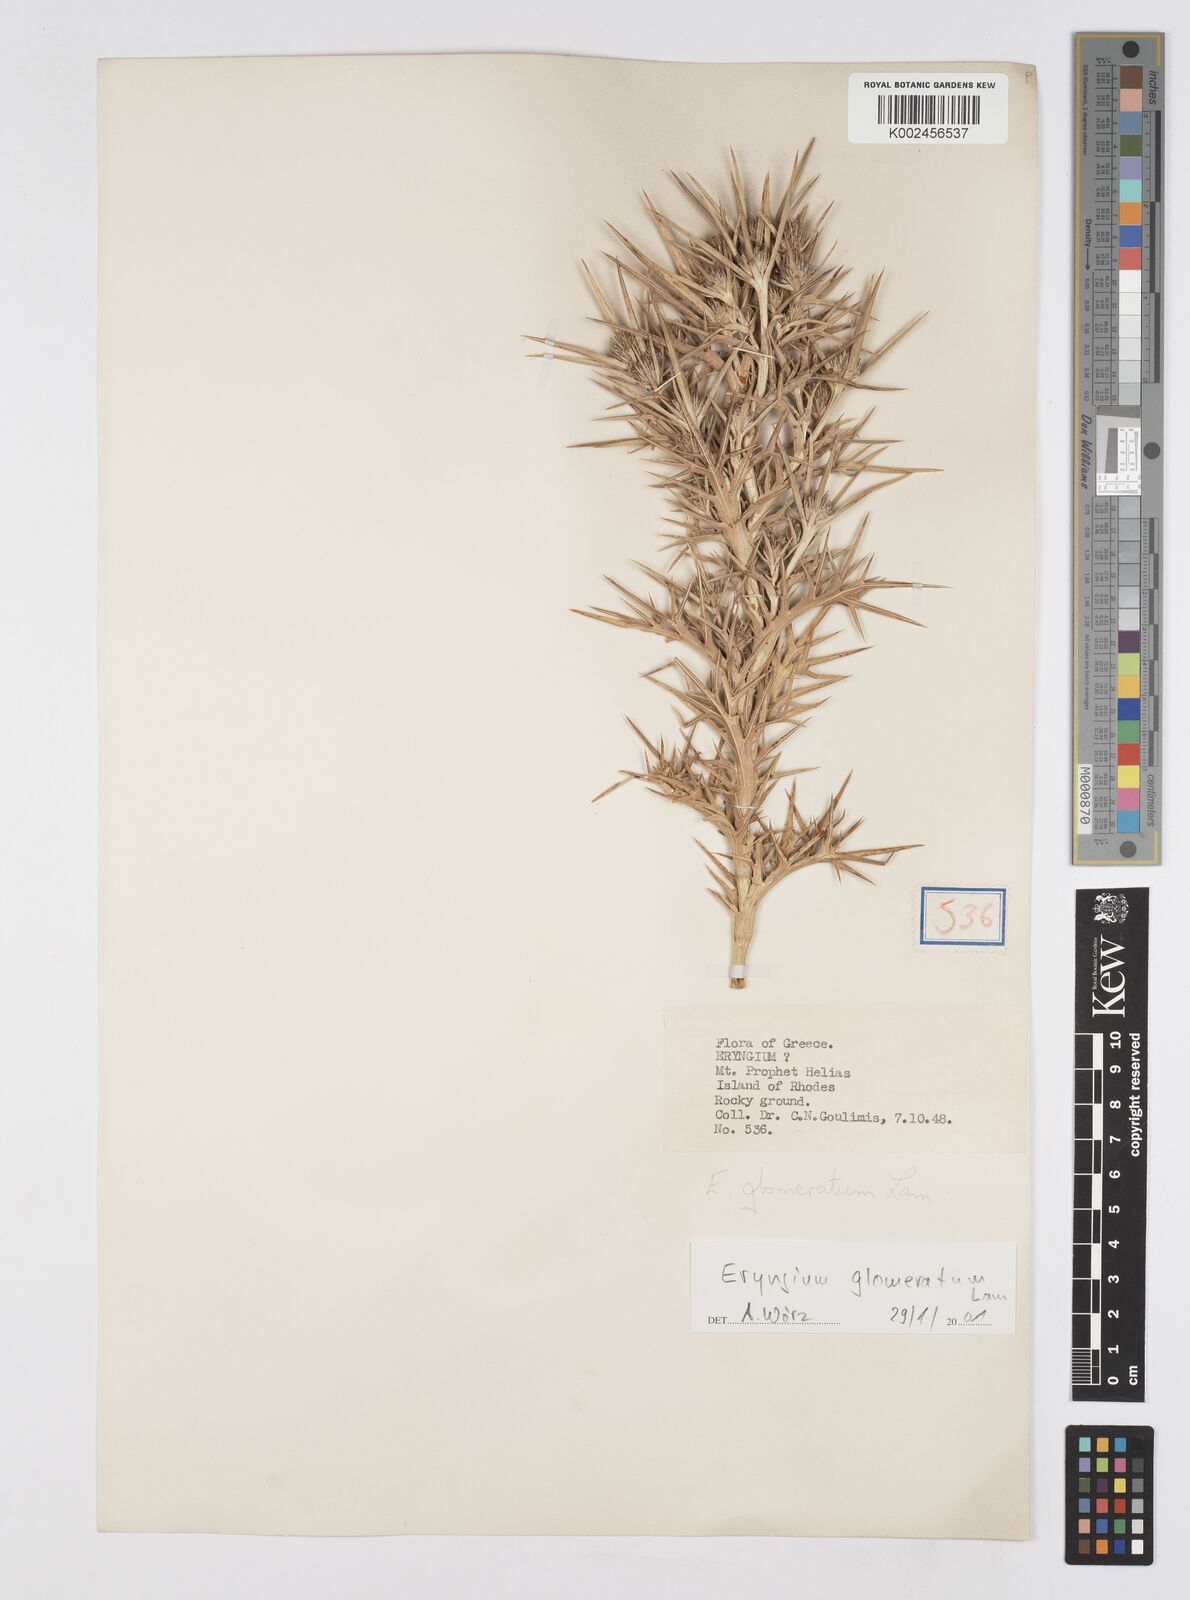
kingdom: Plantae
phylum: Tracheophyta
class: Magnoliopsida
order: Apiales
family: Apiaceae
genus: Eryngium
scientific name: Eryngium glomeratum
